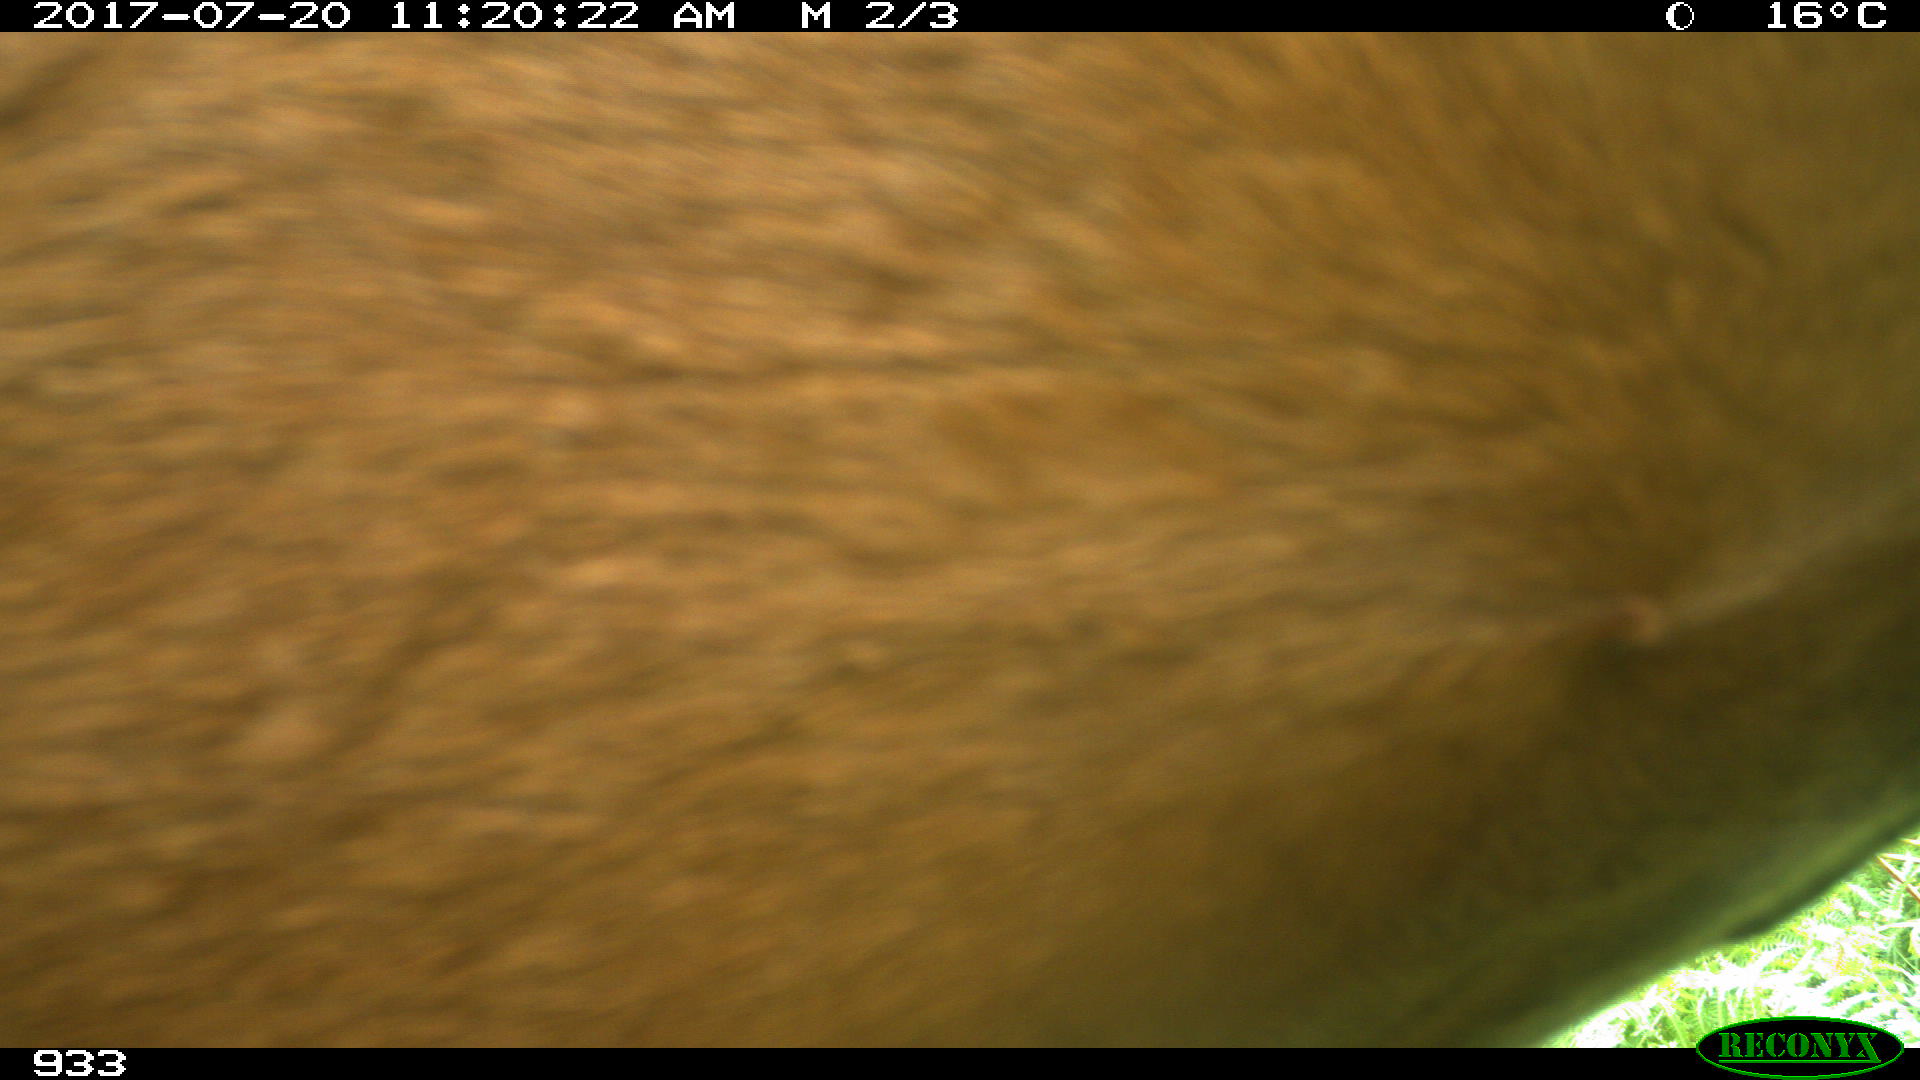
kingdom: Animalia
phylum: Chordata
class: Mammalia
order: Perissodactyla
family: Equidae
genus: Equus
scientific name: Equus caballus
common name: Horse
